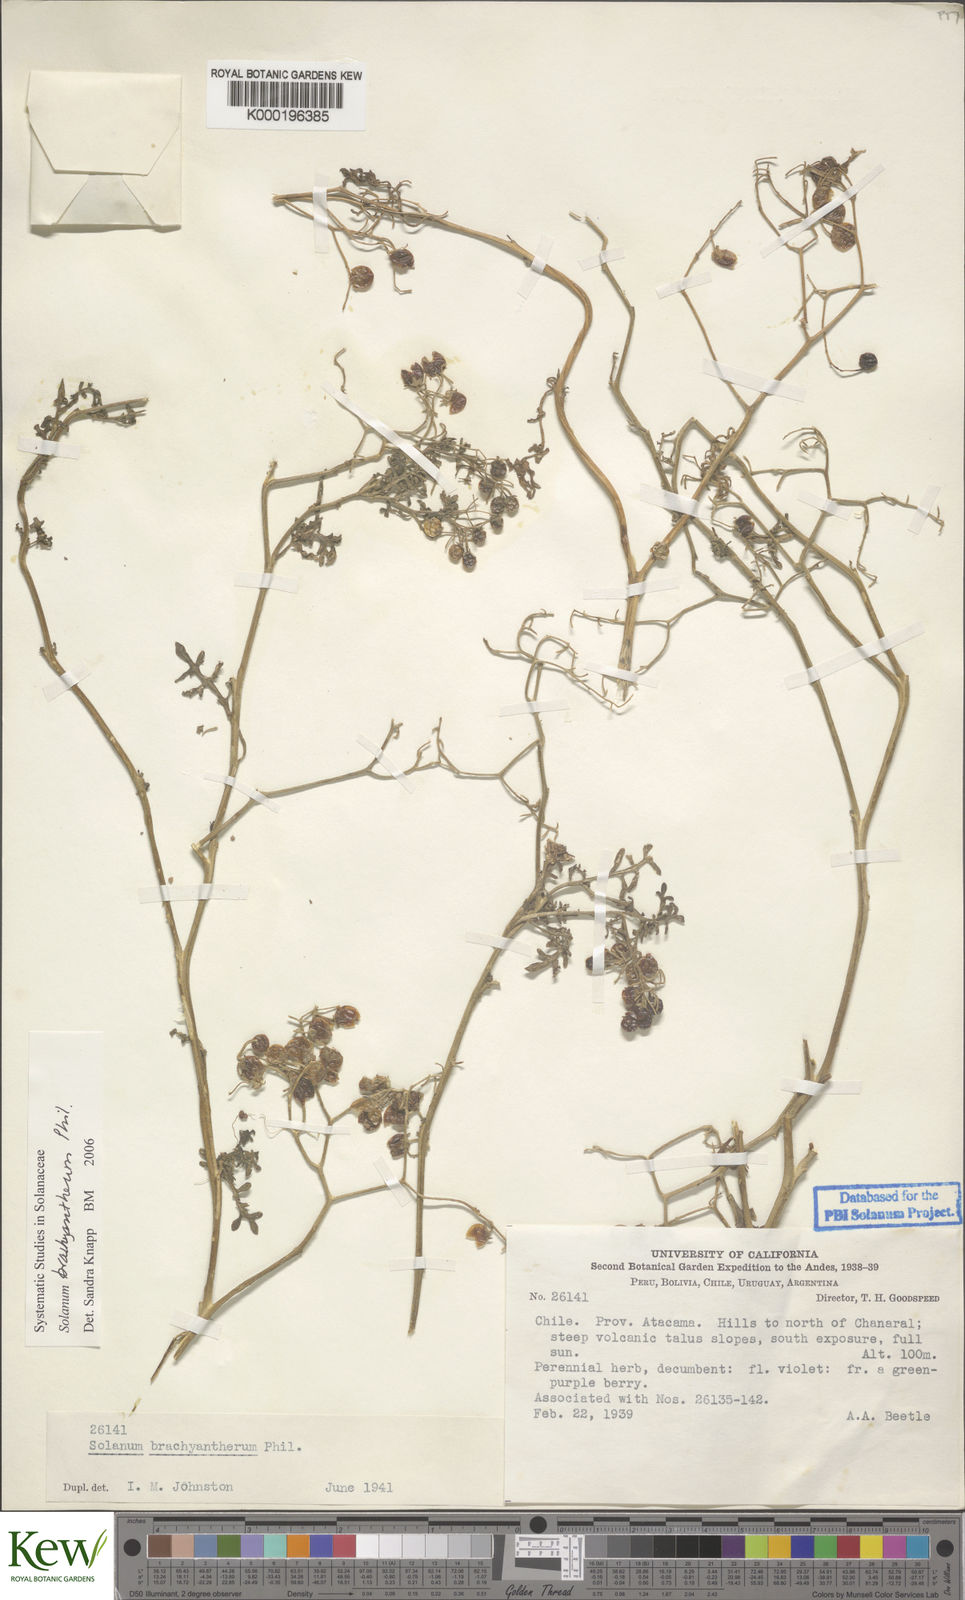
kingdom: Plantae
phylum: Tracheophyta
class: Magnoliopsida
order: Solanales
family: Solanaceae
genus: Solanum
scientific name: Solanum brachyantherum
